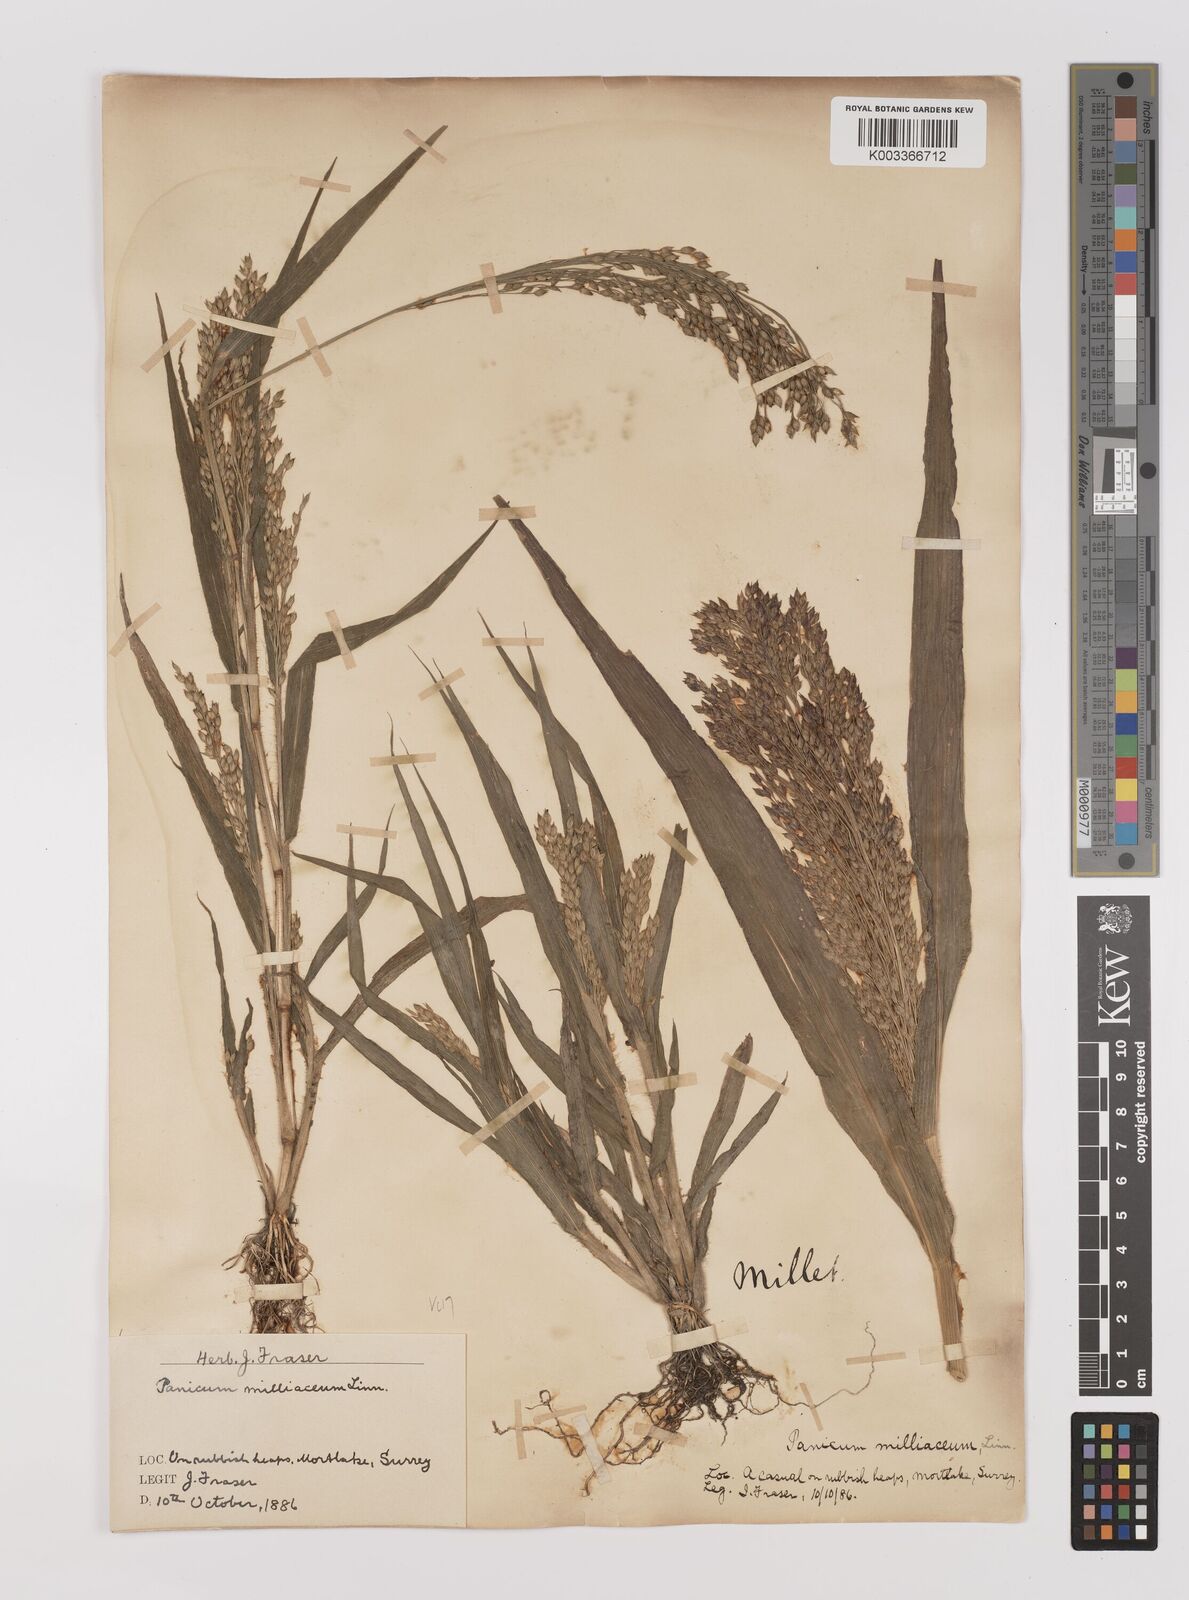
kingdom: Plantae
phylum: Tracheophyta
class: Liliopsida
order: Poales
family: Poaceae
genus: Panicum
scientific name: Panicum miliaceum
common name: Common millet
